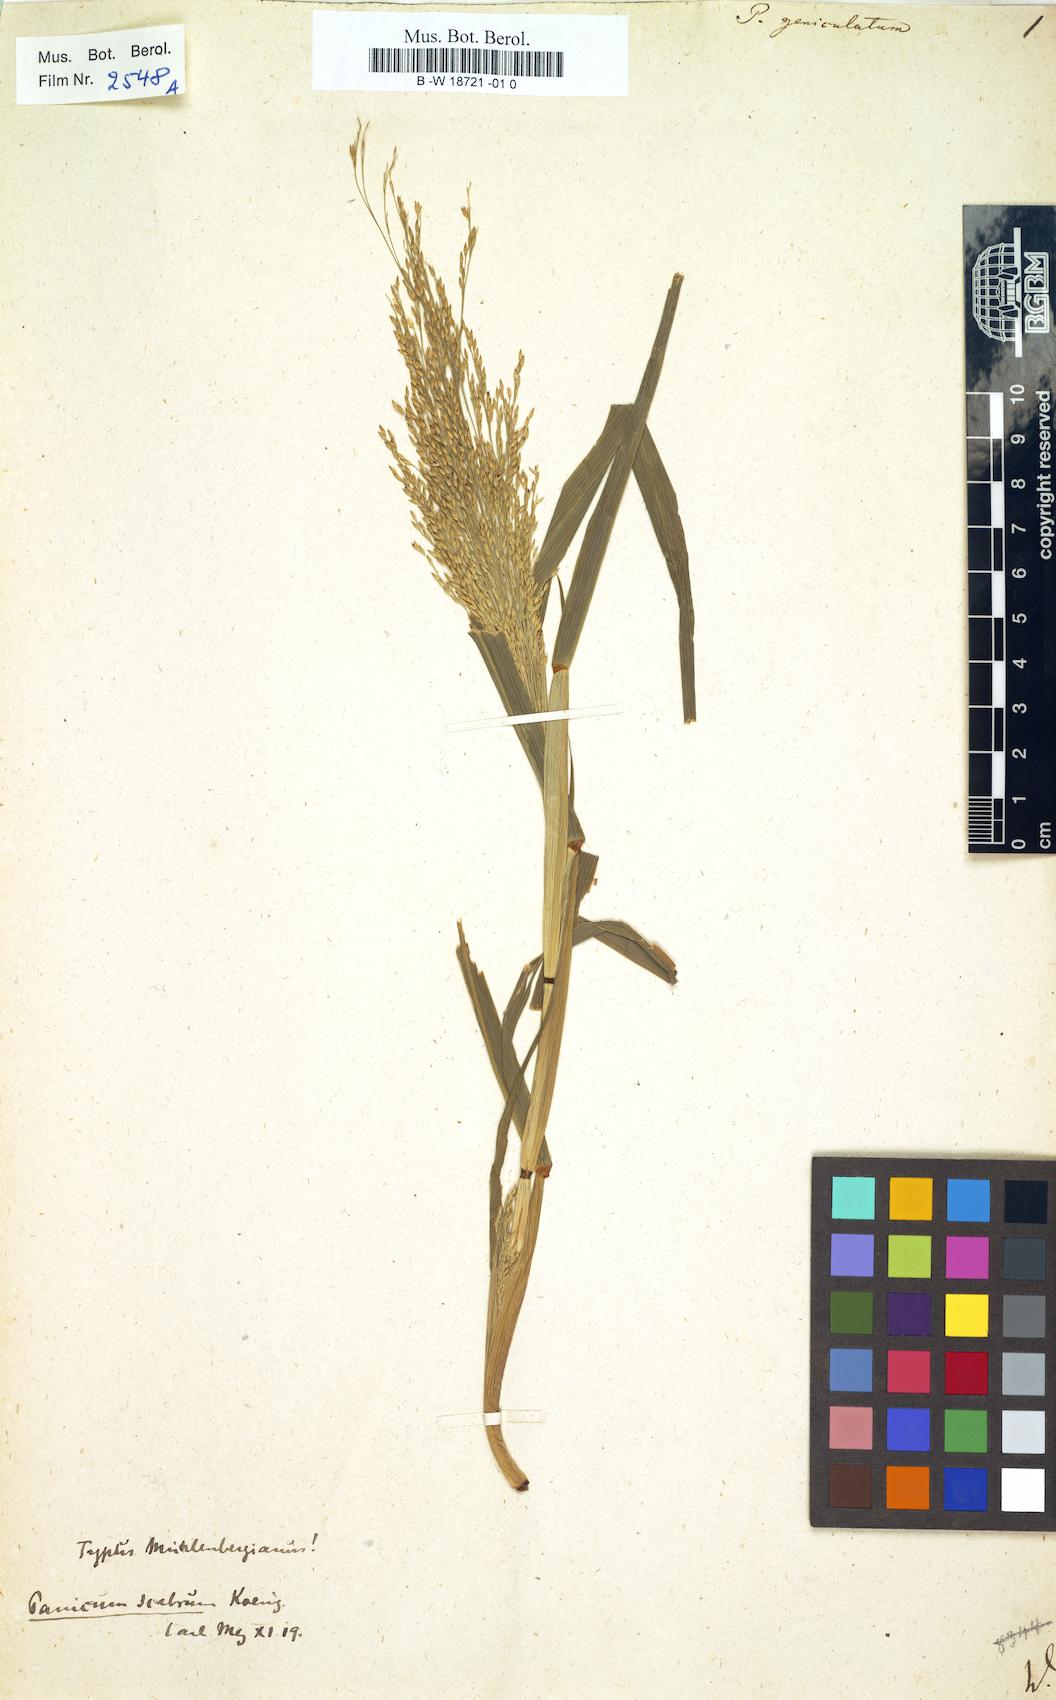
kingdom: Plantae
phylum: Tracheophyta
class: Liliopsida
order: Poales
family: Poaceae
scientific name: Poaceae
